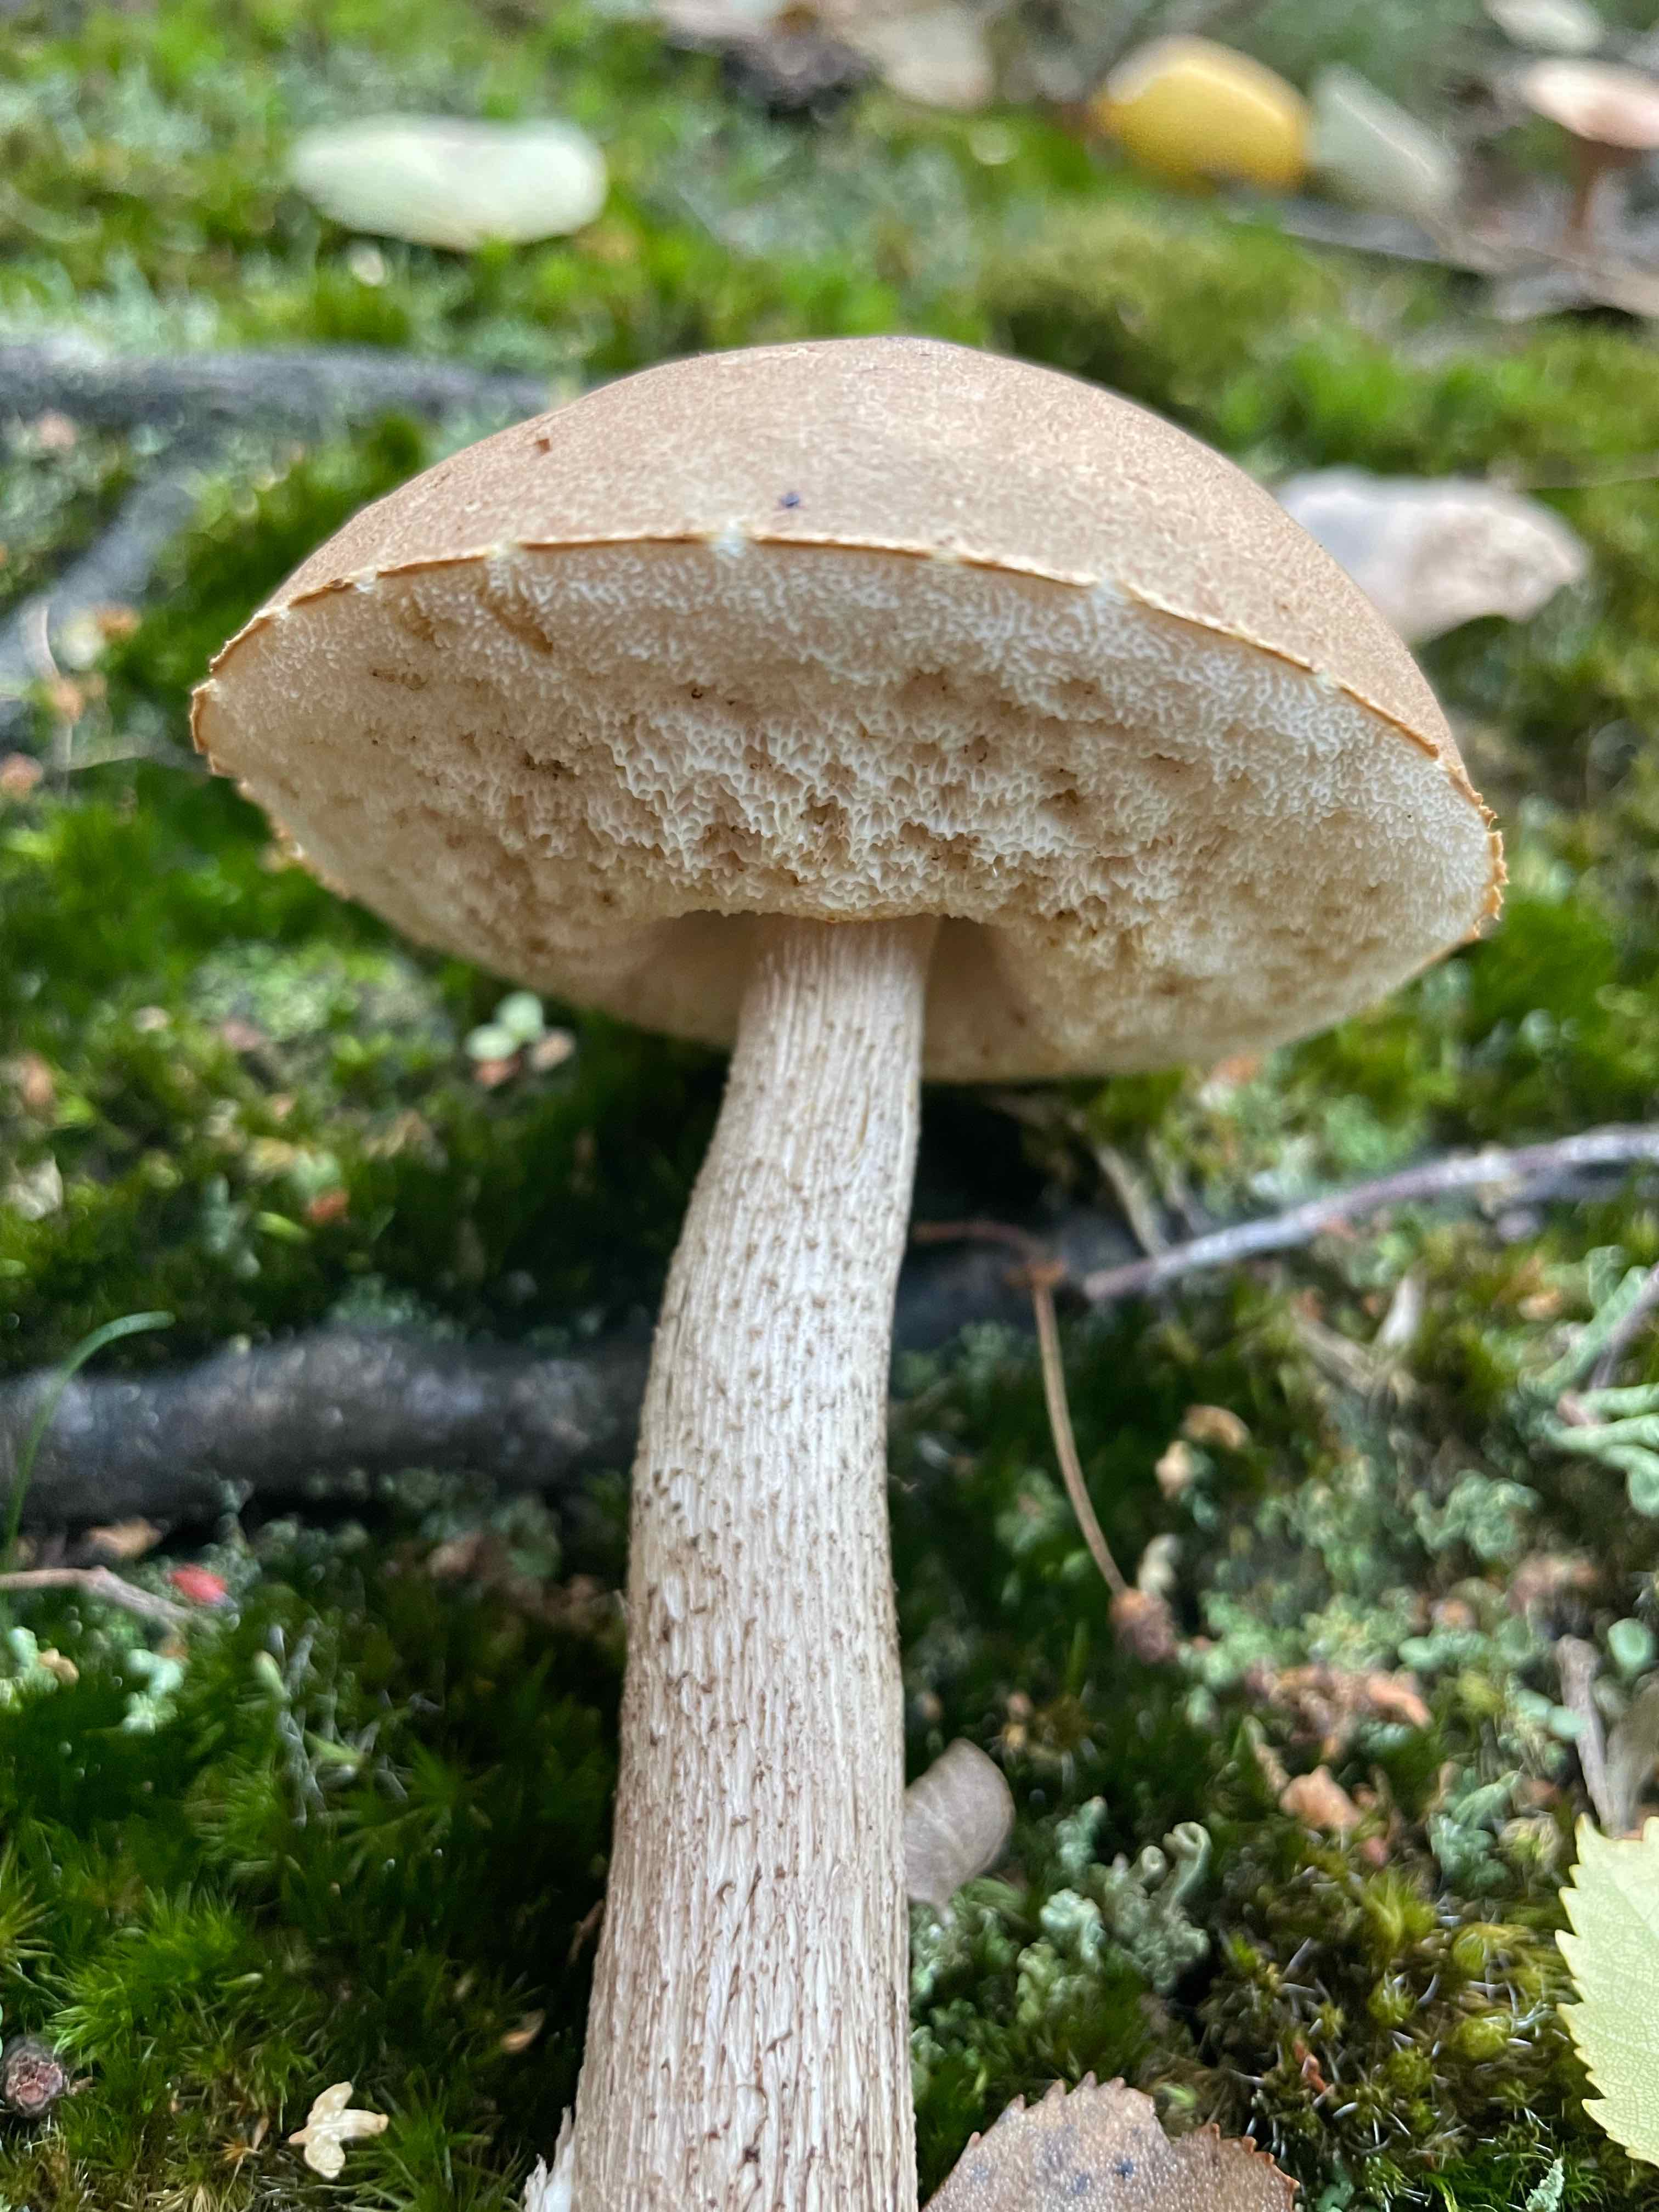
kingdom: Fungi
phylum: Basidiomycota
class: Agaricomycetes
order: Boletales
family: Boletaceae
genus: Leccinum
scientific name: Leccinum
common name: skælrørhat
